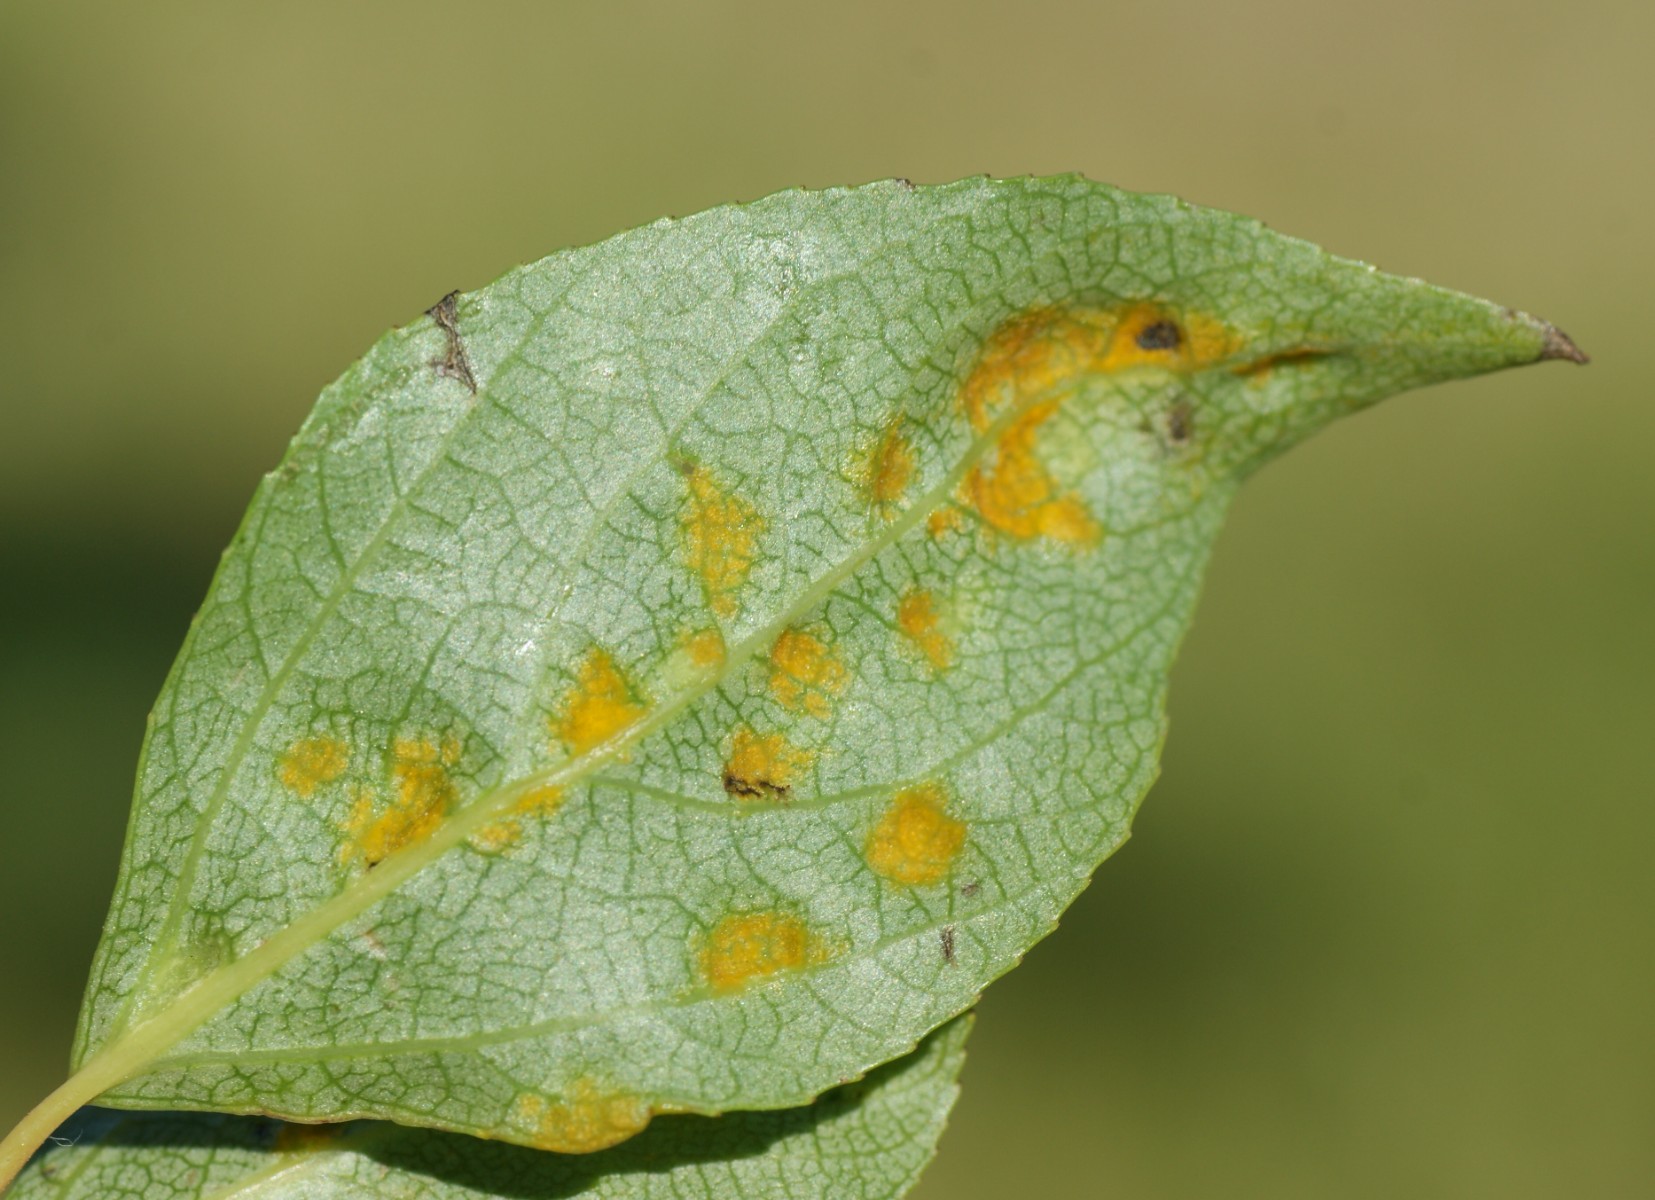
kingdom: Fungi
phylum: Ascomycota
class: Taphrinomycetes
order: Taphrinales
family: Taphrinaceae
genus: Taphrina
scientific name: Taphrina populina
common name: Poplar leaf curl
